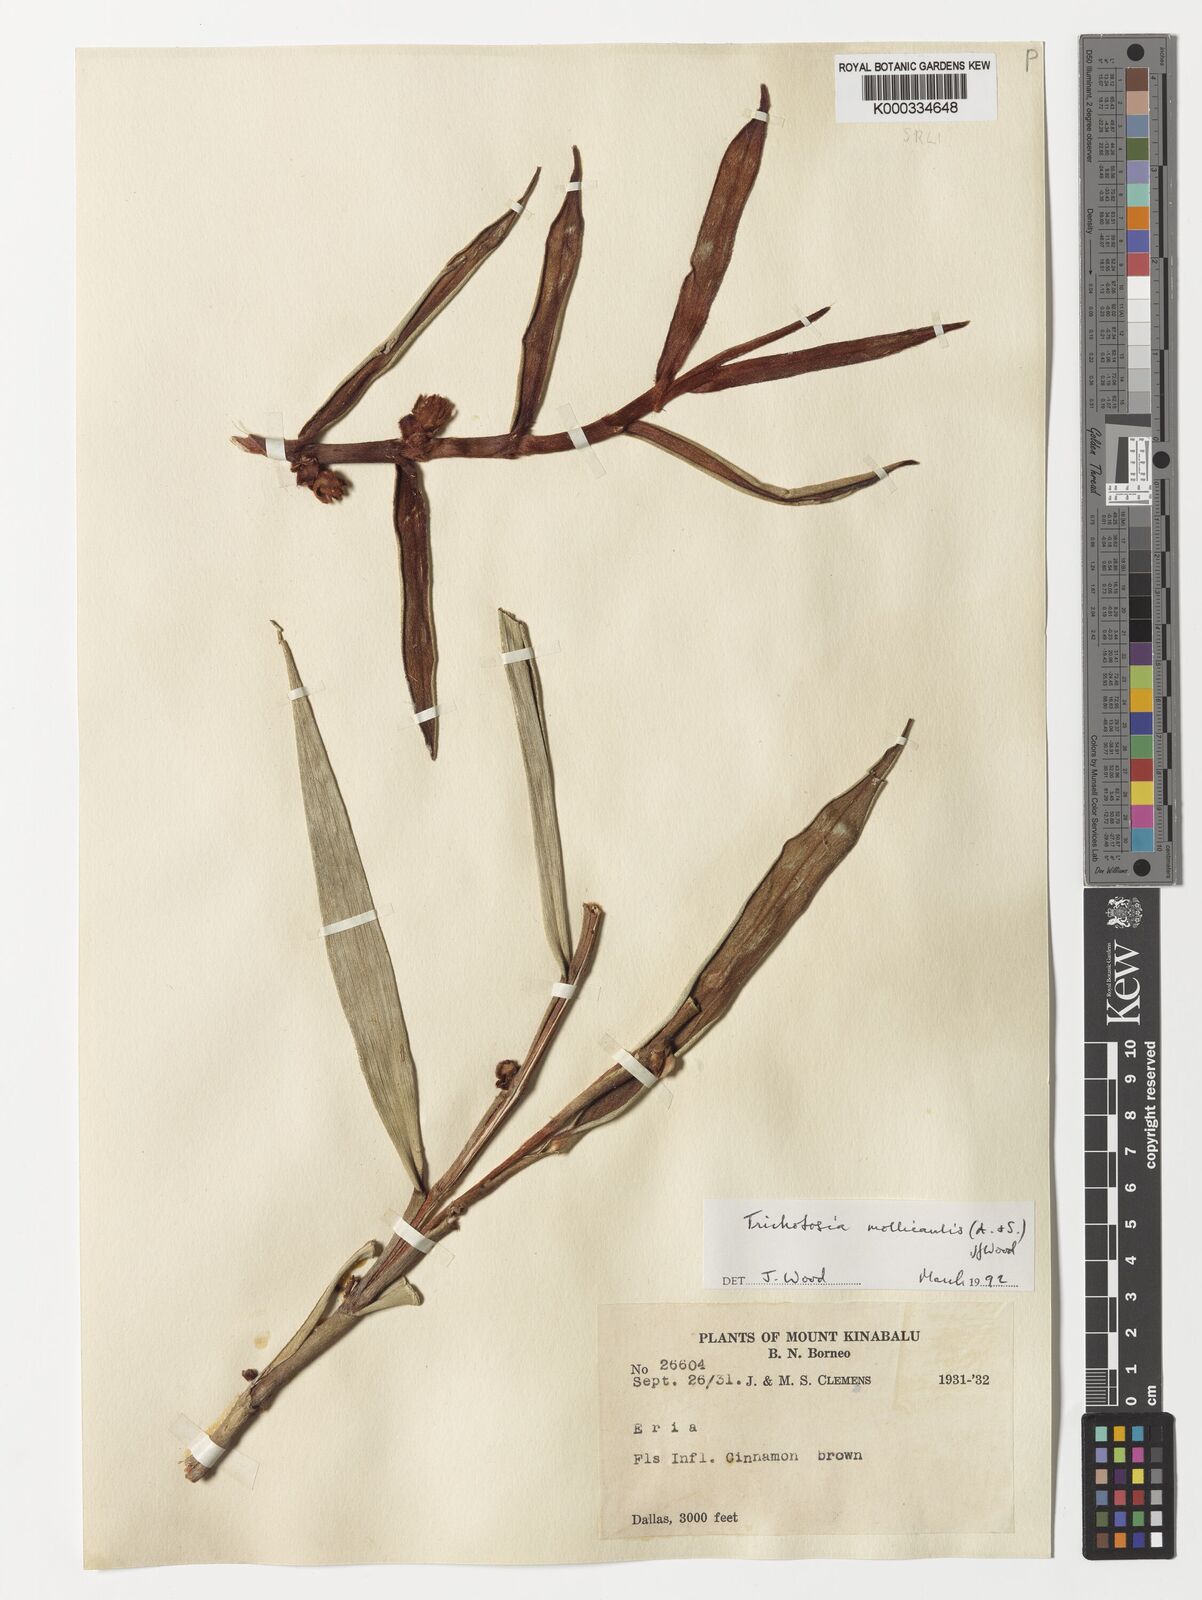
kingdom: Plantae
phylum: Tracheophyta
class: Liliopsida
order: Asparagales
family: Orchidaceae
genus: Trichotosia
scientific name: Trichotosia mollicaulis
